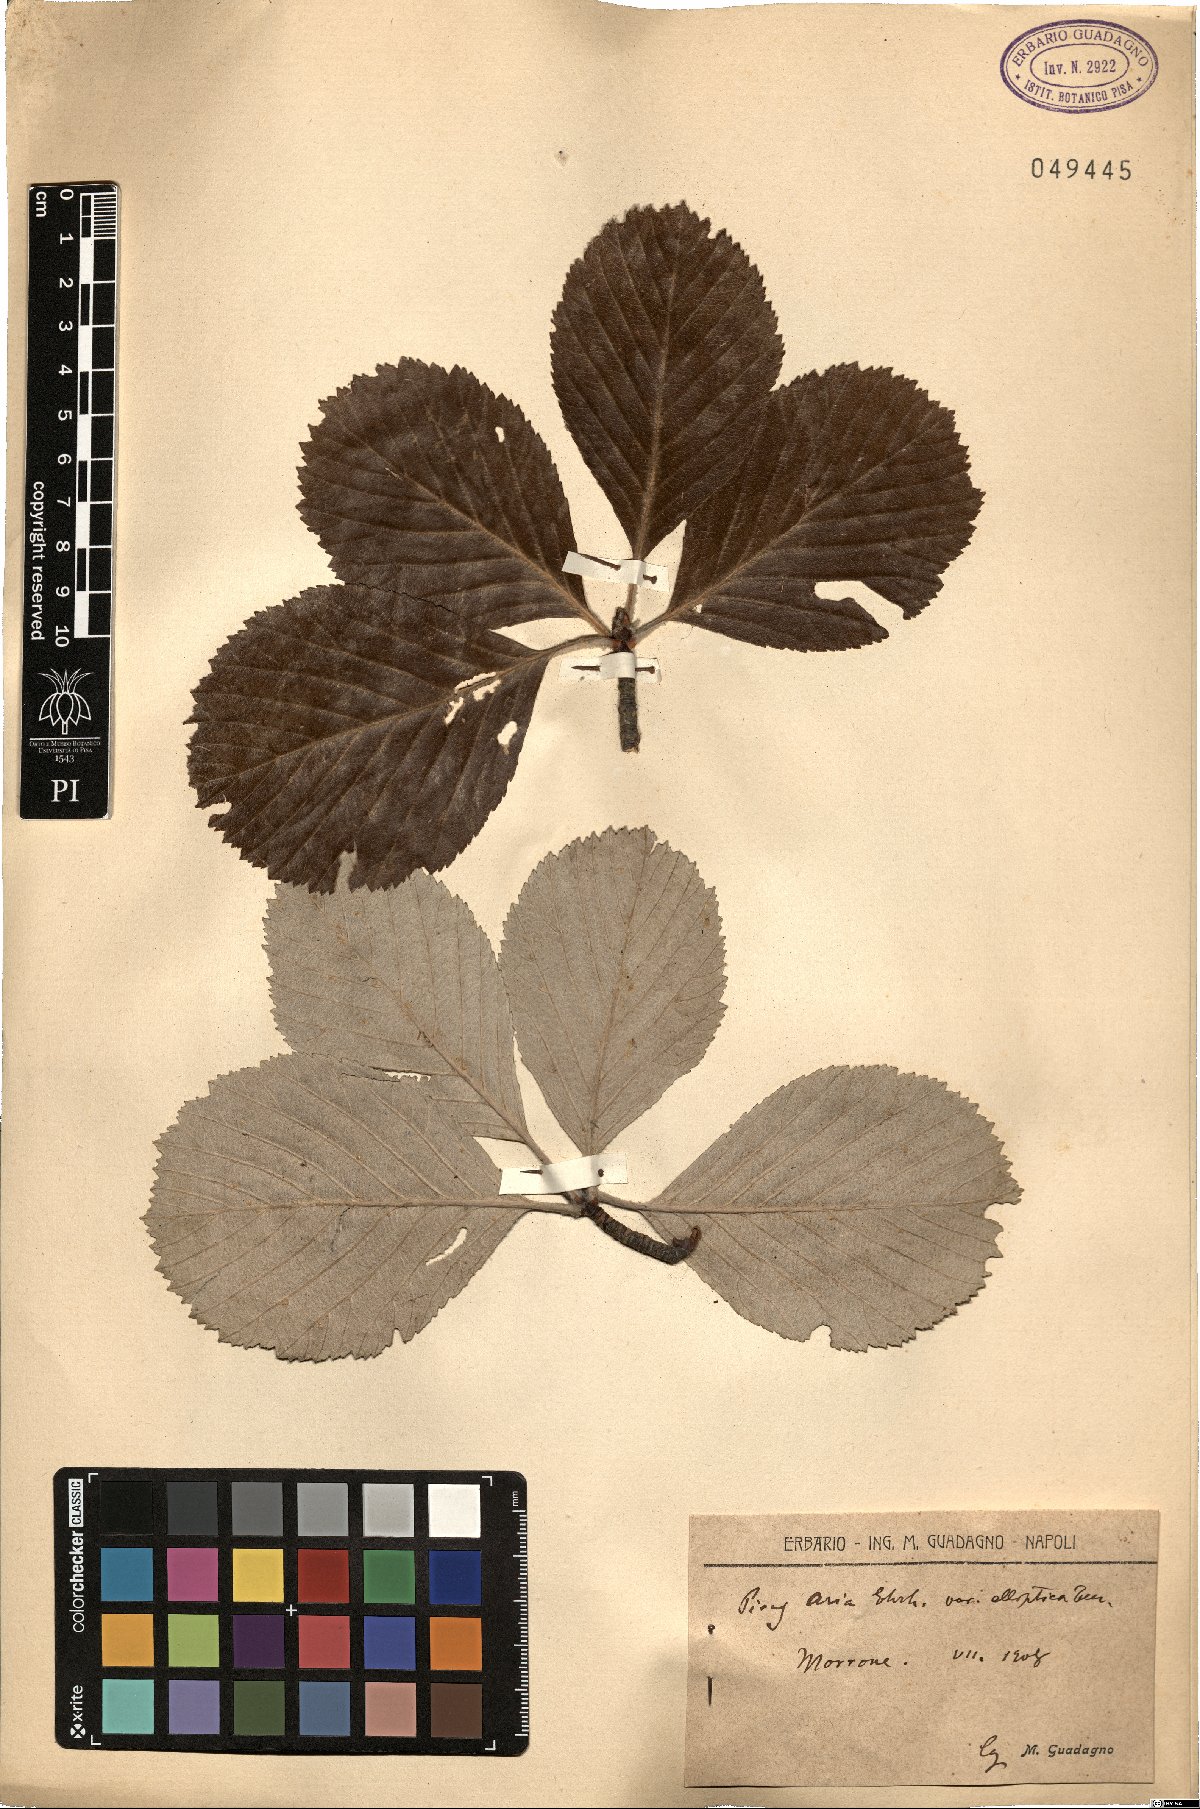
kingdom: Plantae
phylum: Tracheophyta
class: Magnoliopsida
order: Rosales
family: Rosaceae
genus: Aria
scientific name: Aria edulis
